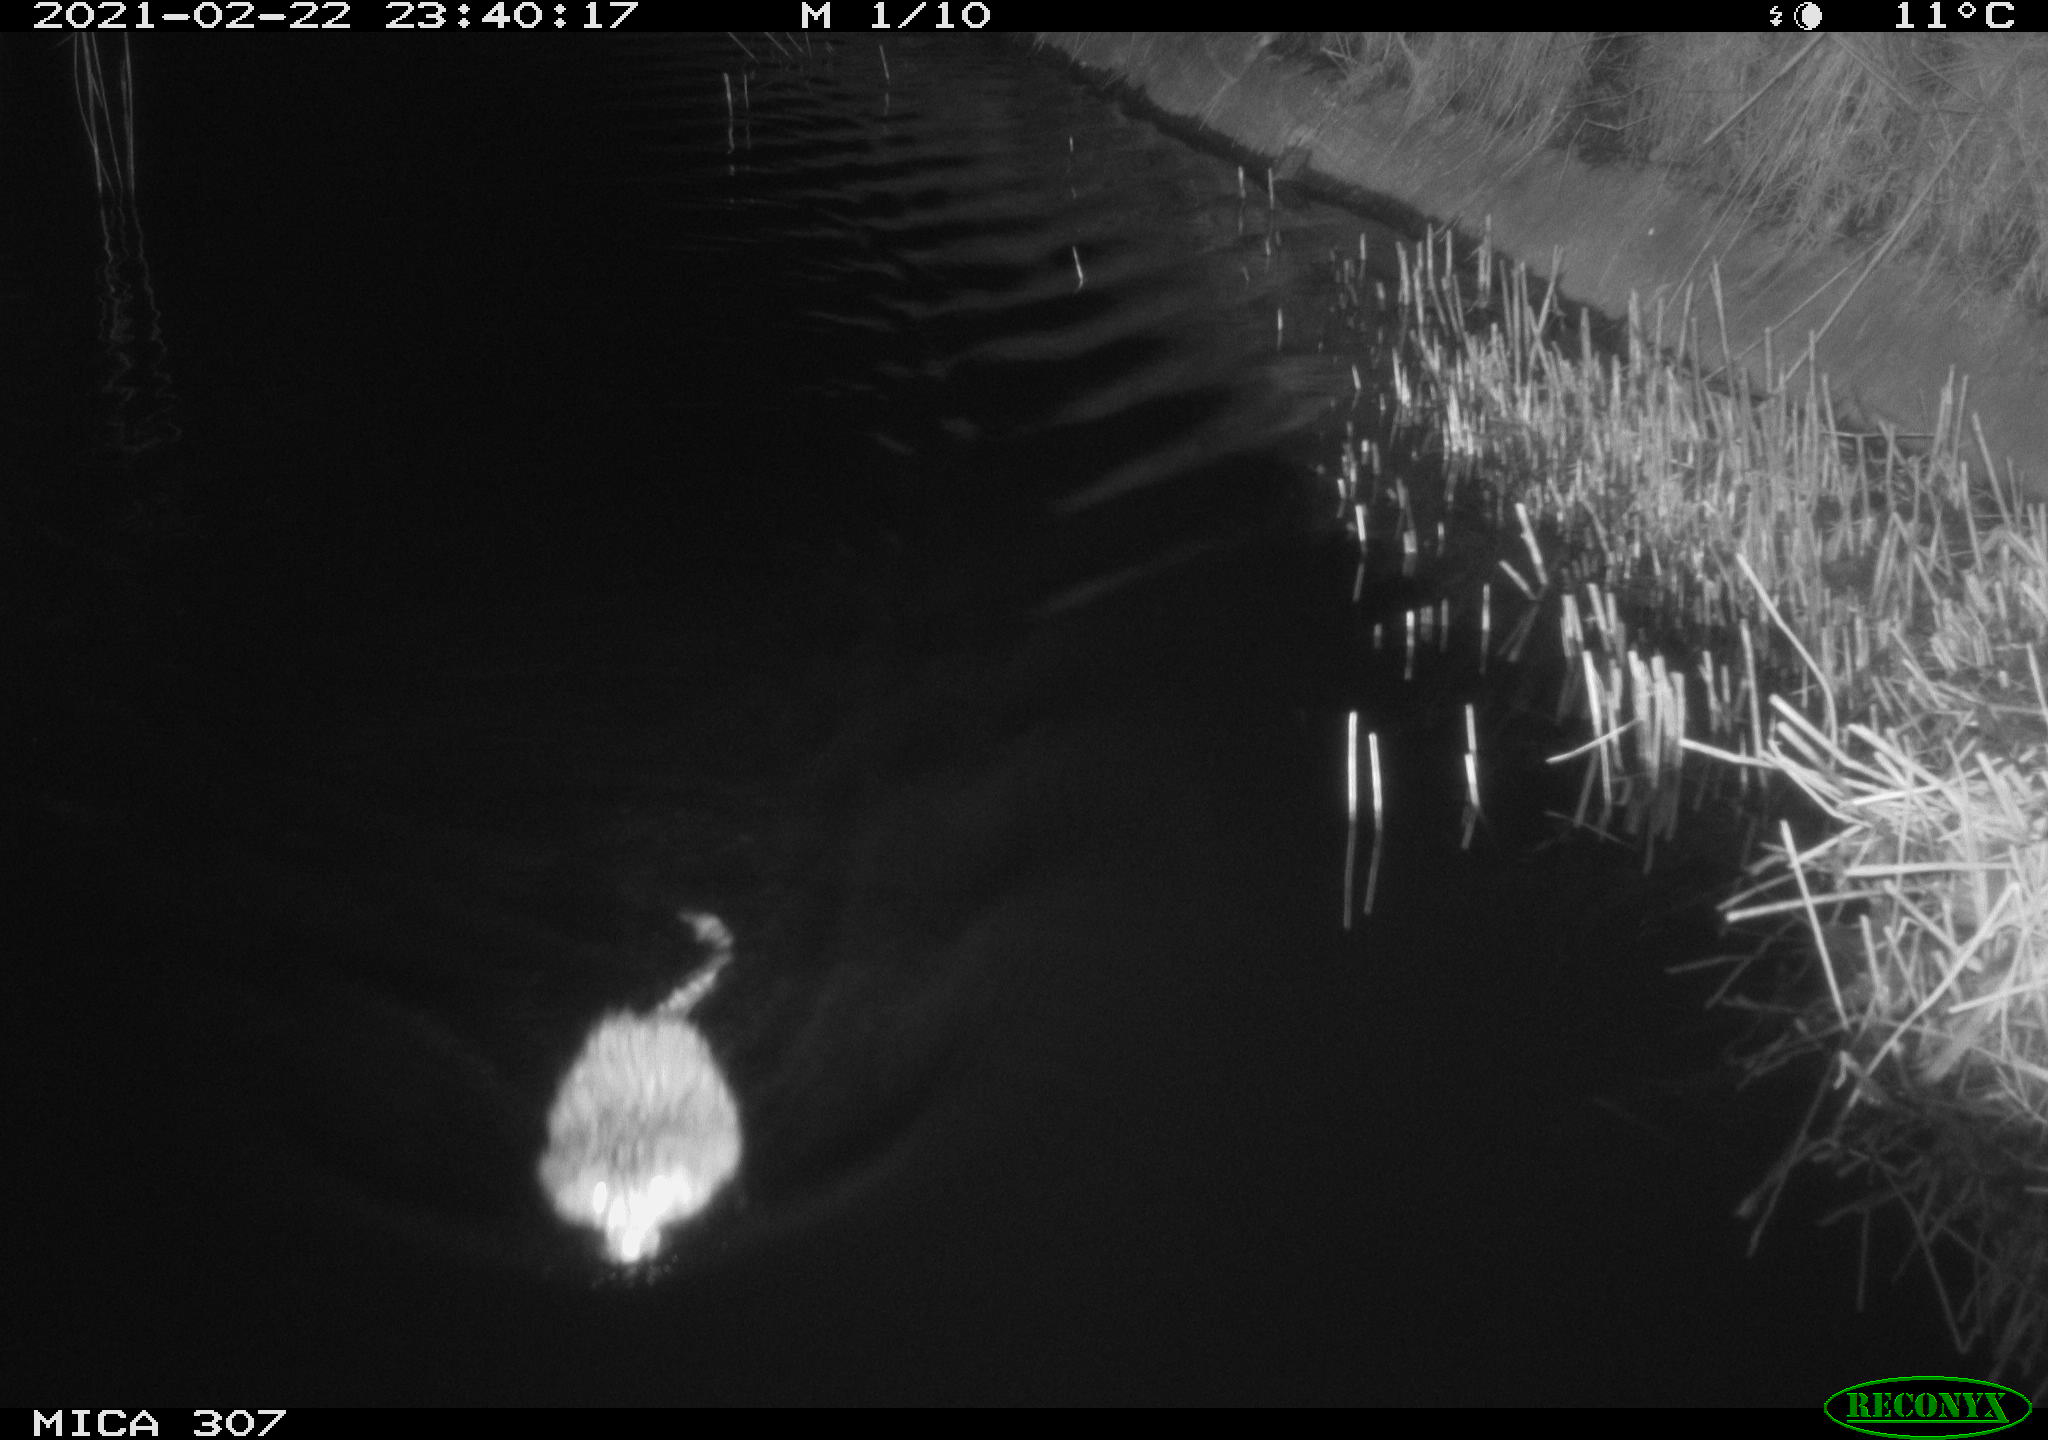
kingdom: Animalia
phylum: Chordata
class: Mammalia
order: Rodentia
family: Cricetidae
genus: Ondatra
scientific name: Ondatra zibethicus
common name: Muskrat
